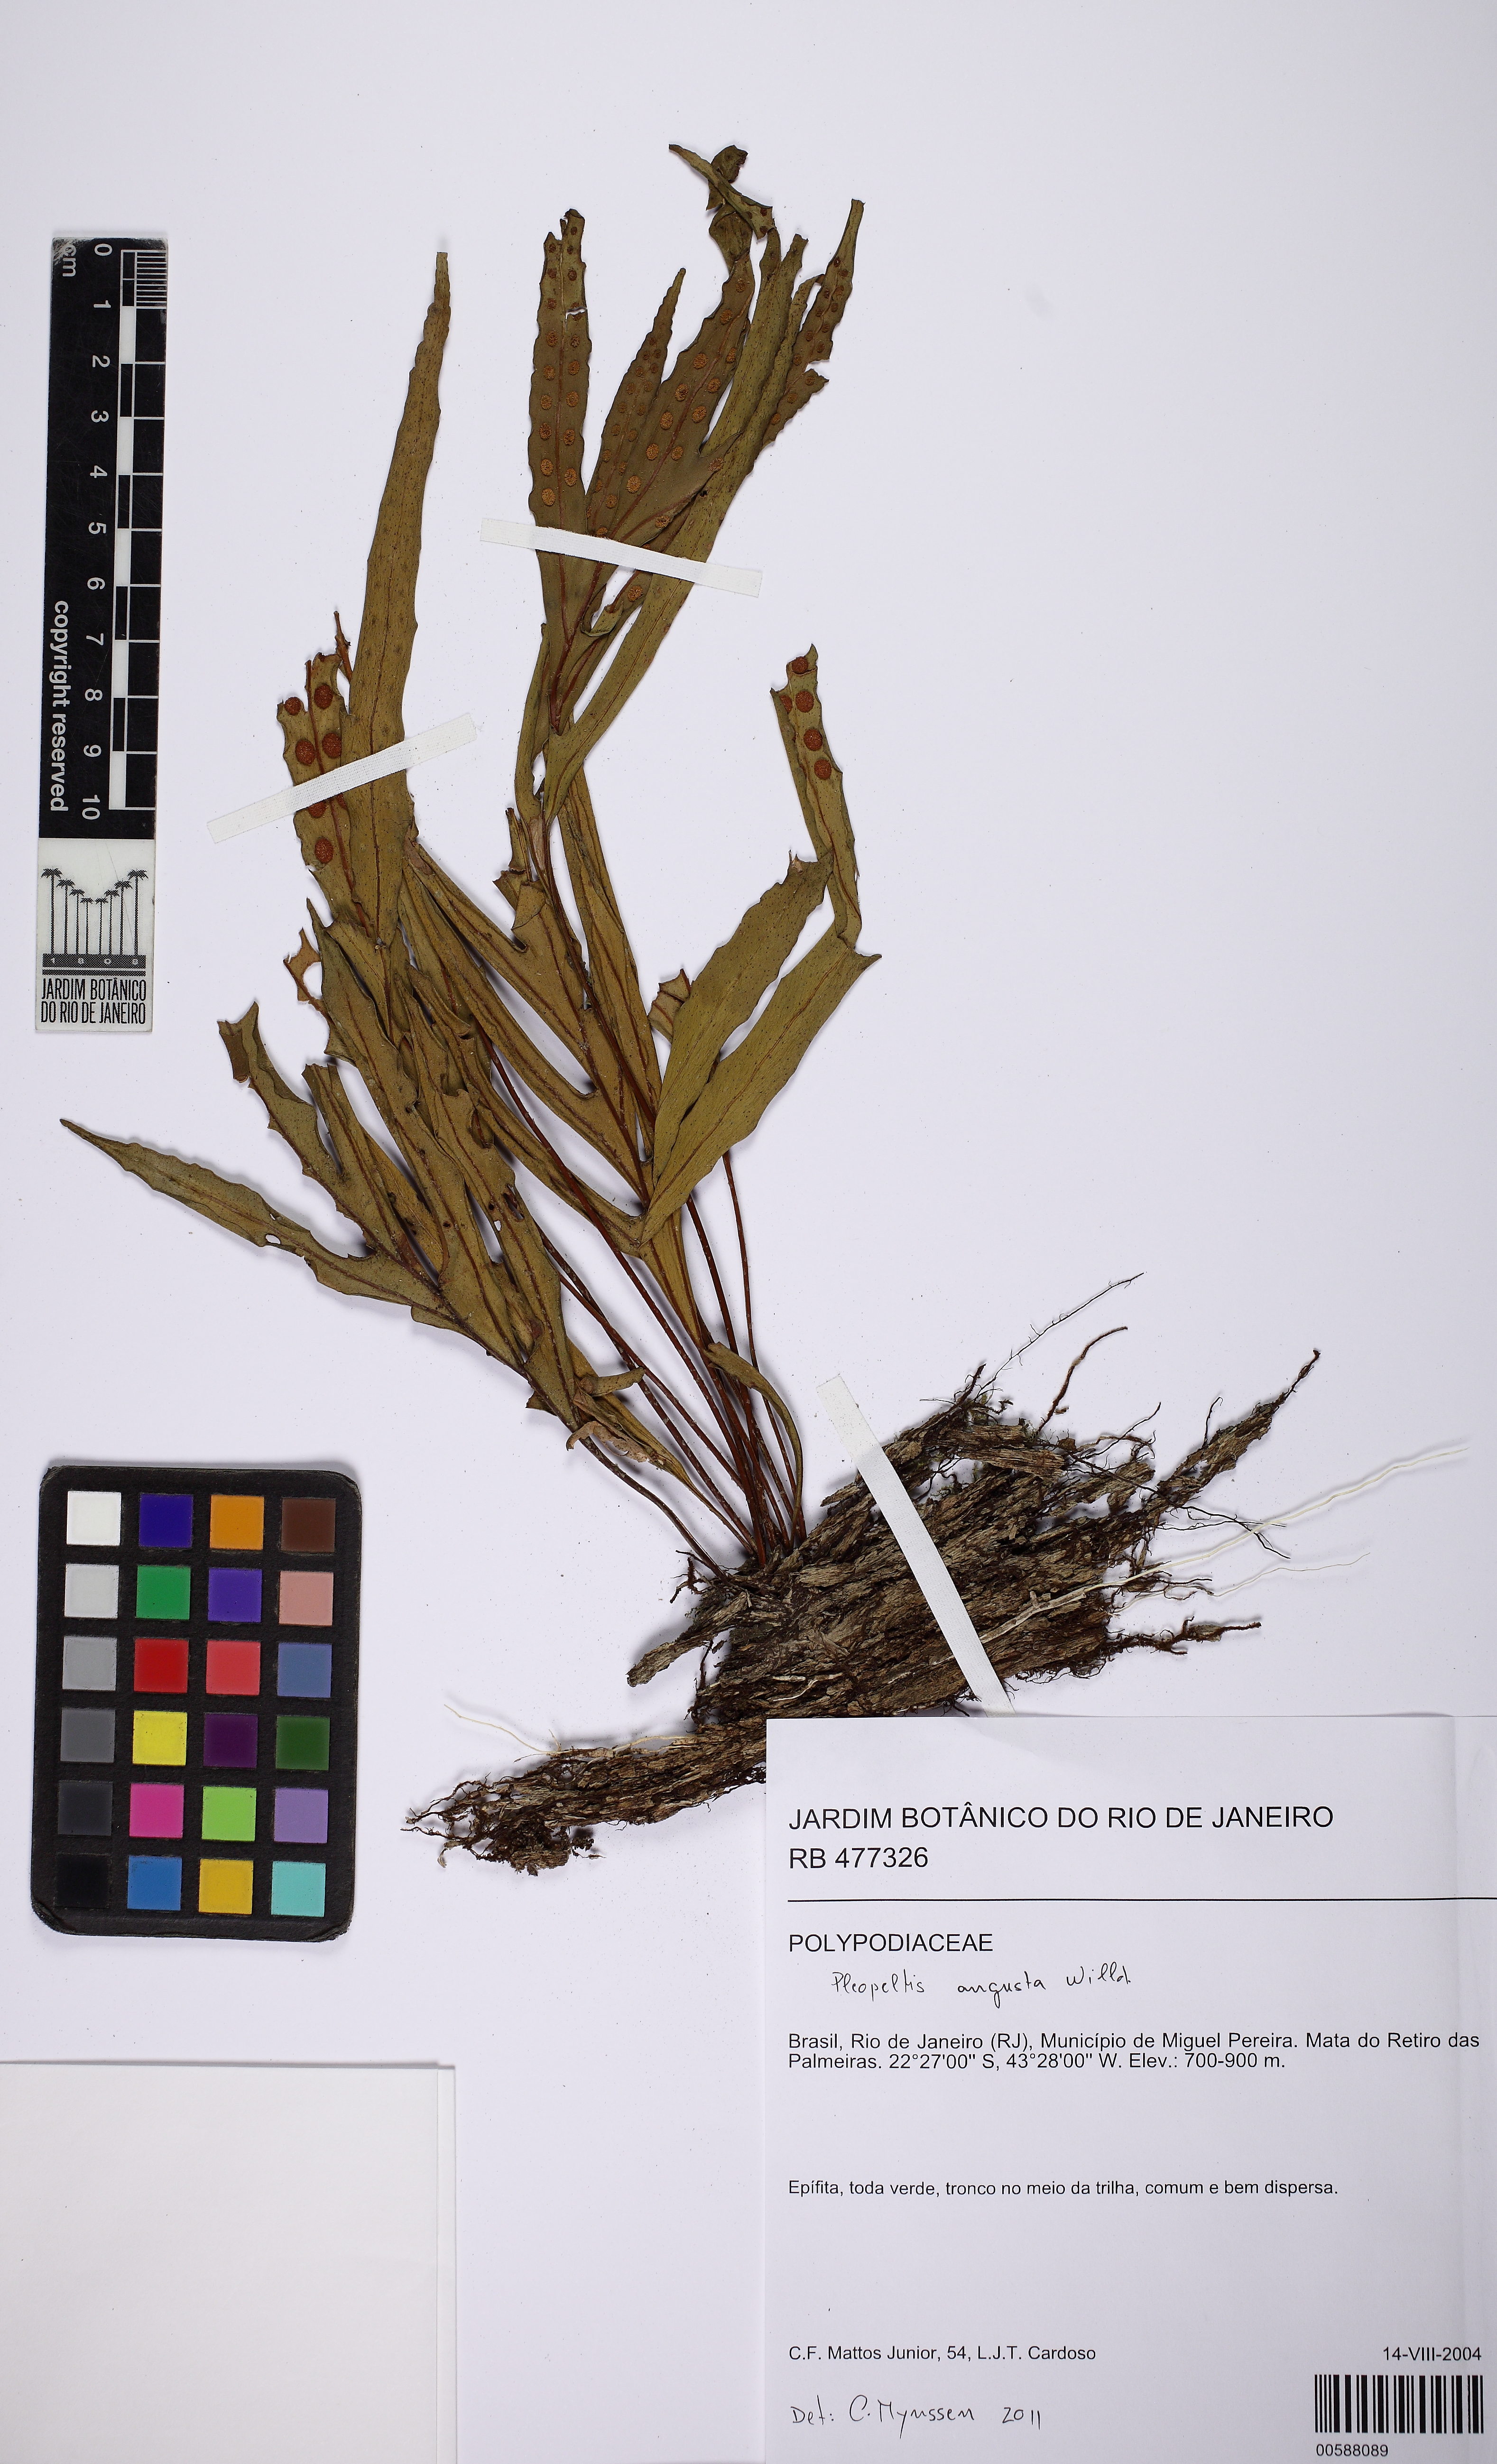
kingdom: Plantae
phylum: Tracheophyta
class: Polypodiopsida
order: Polypodiales
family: Polypodiaceae
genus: Pleopeltis
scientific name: Pleopeltis pleopeltifolia
